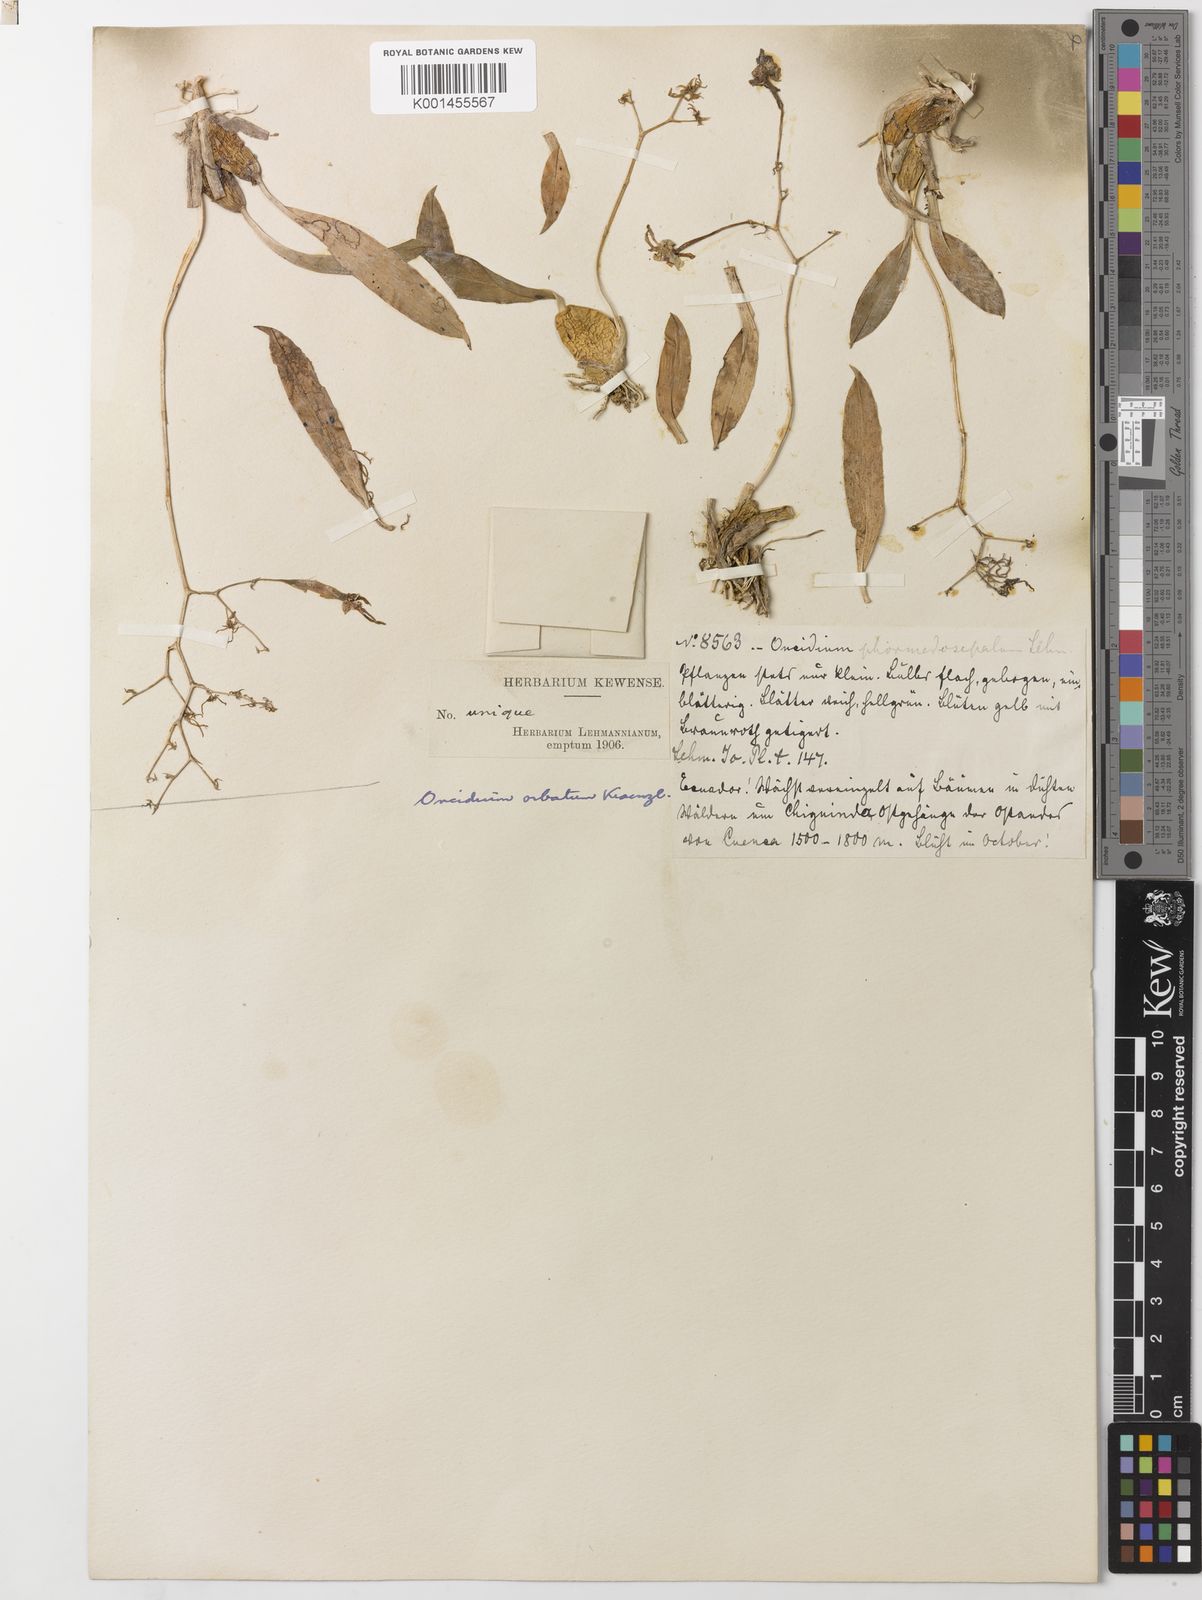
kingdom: Plantae
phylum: Tracheophyta
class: Liliopsida
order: Asparagales
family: Orchidaceae
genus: Oncidium
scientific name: Oncidium orbatum
